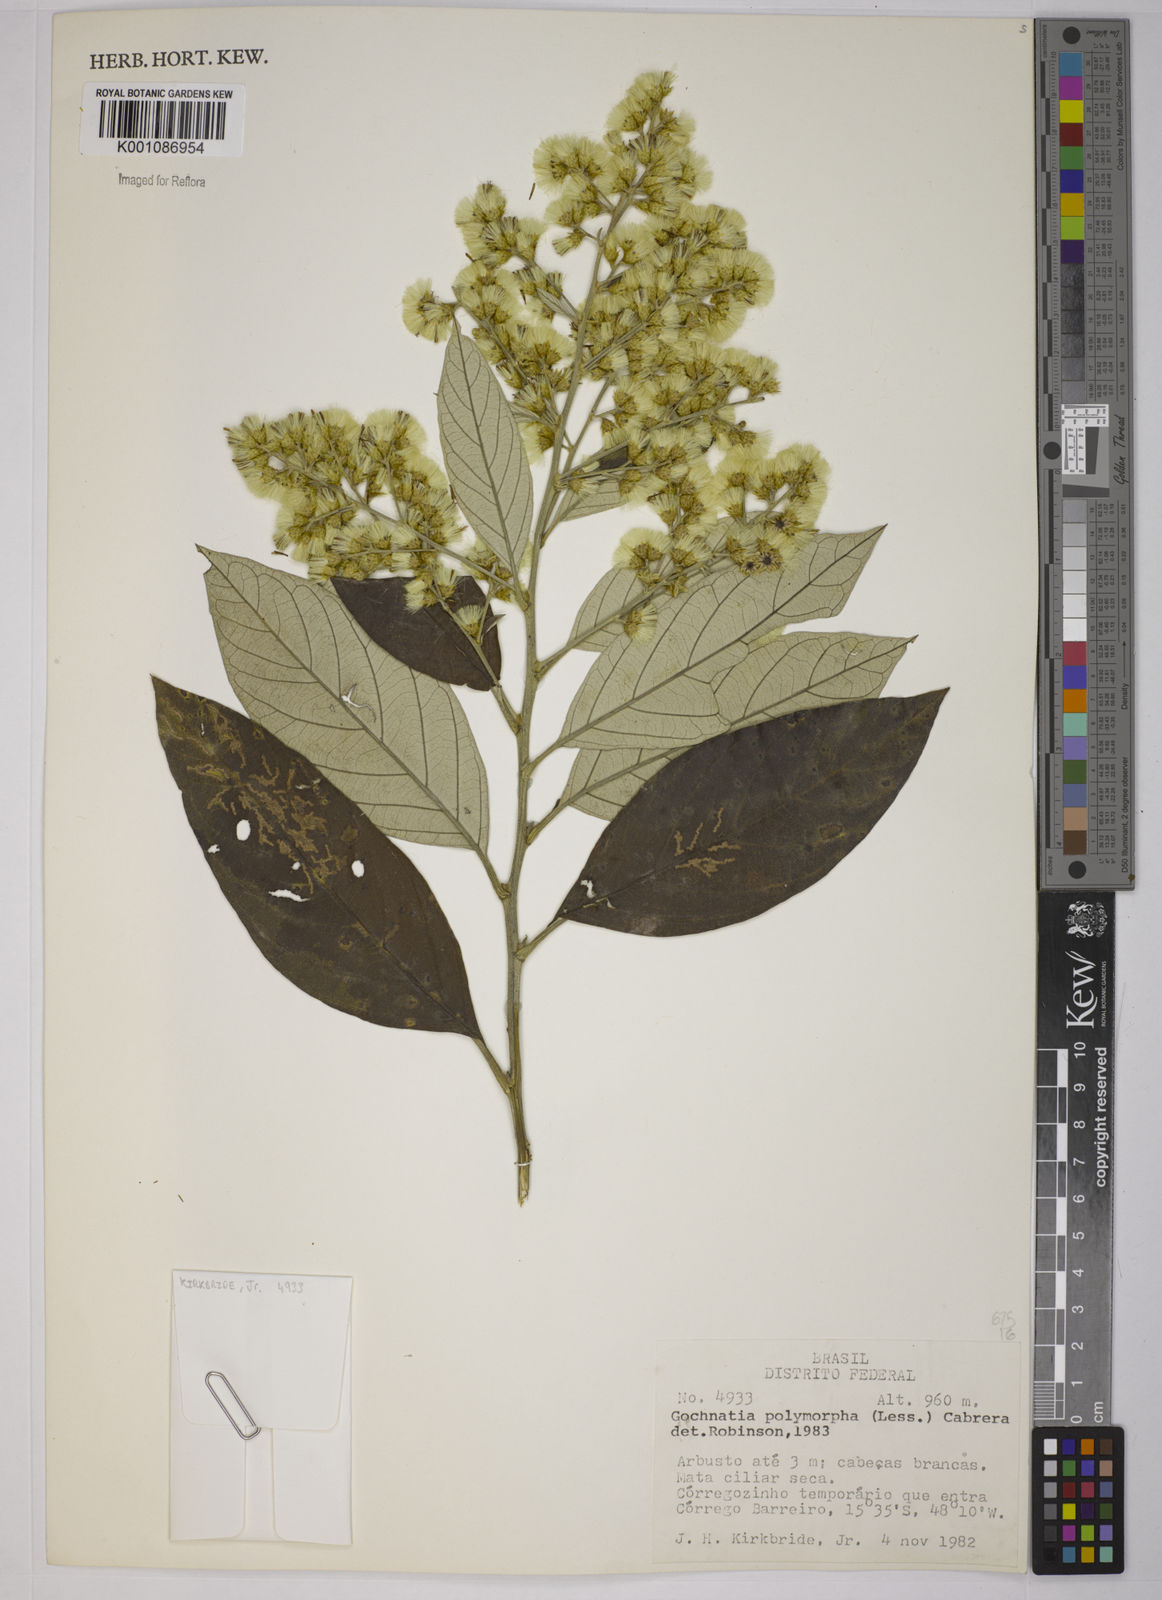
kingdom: Plantae
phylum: Tracheophyta
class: Magnoliopsida
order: Asterales
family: Asteraceae
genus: Moquiniastrum
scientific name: Moquiniastrum polymorphum
